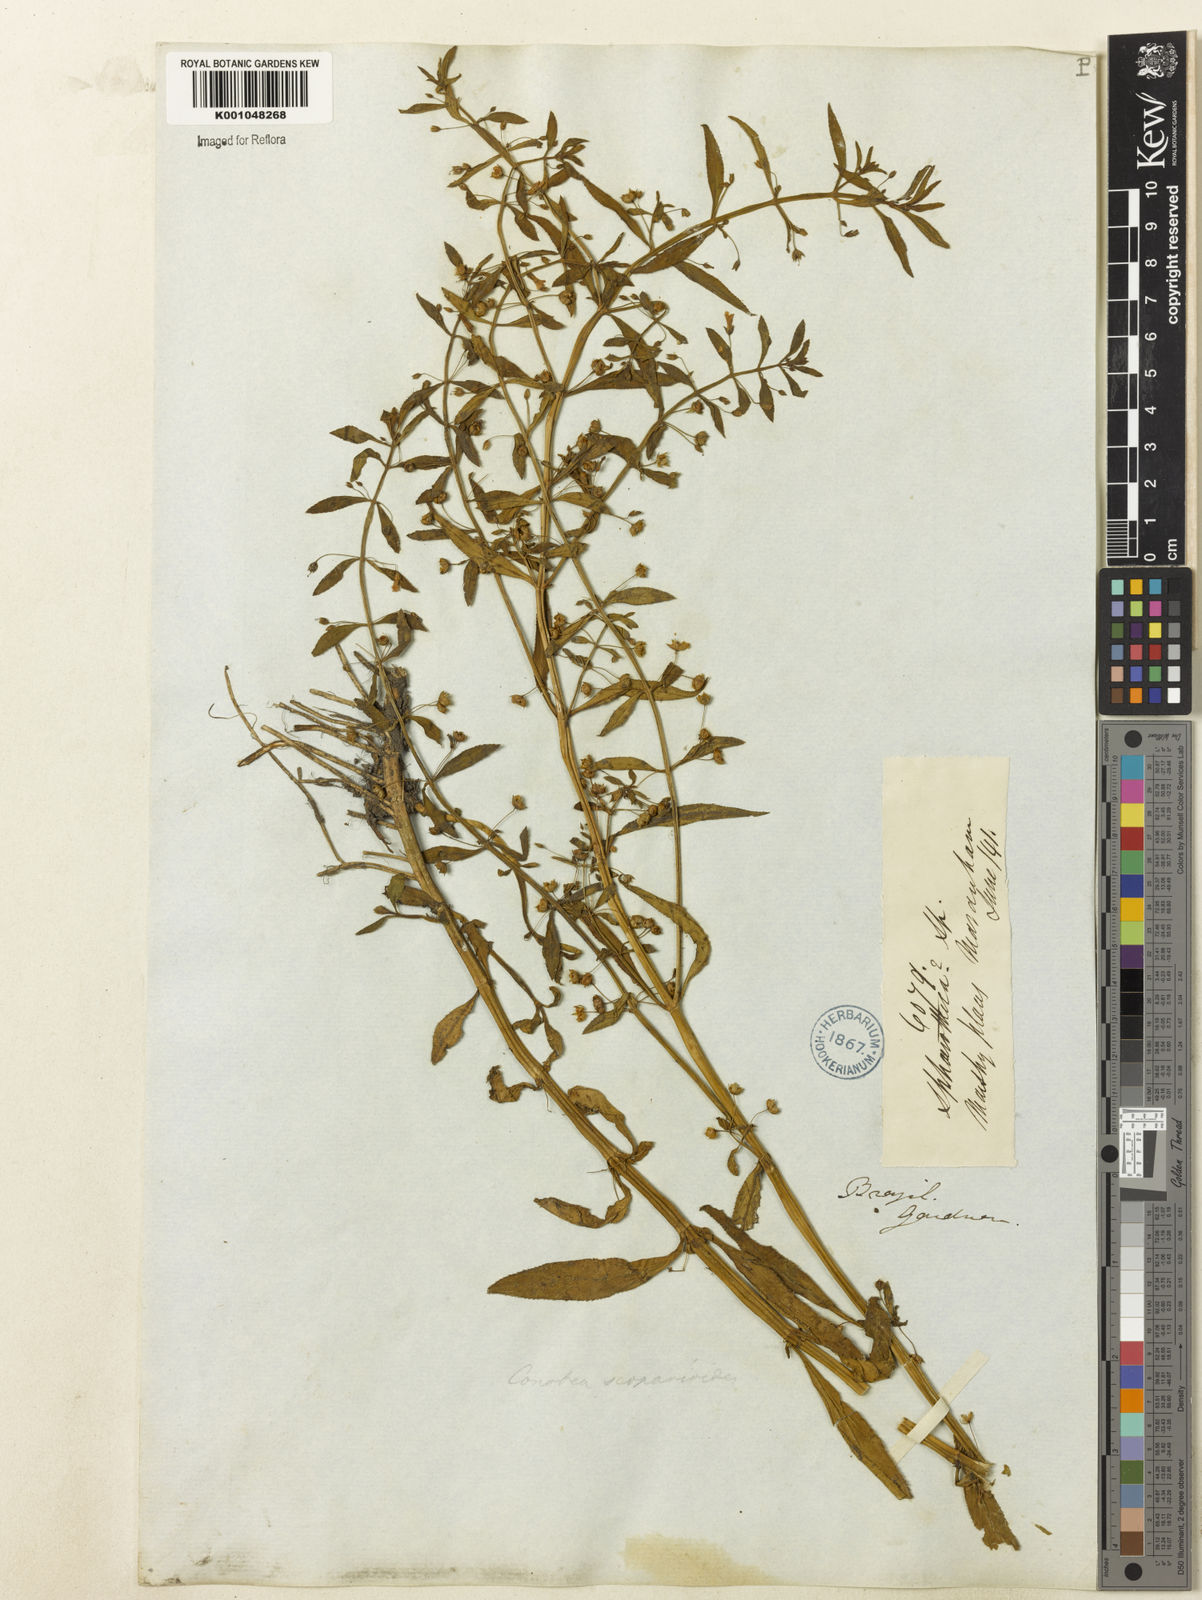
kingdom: Plantae
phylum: Tracheophyta
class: Magnoliopsida
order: Lamiales
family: Plantaginaceae
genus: Conobea
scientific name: Conobea scoparioides
